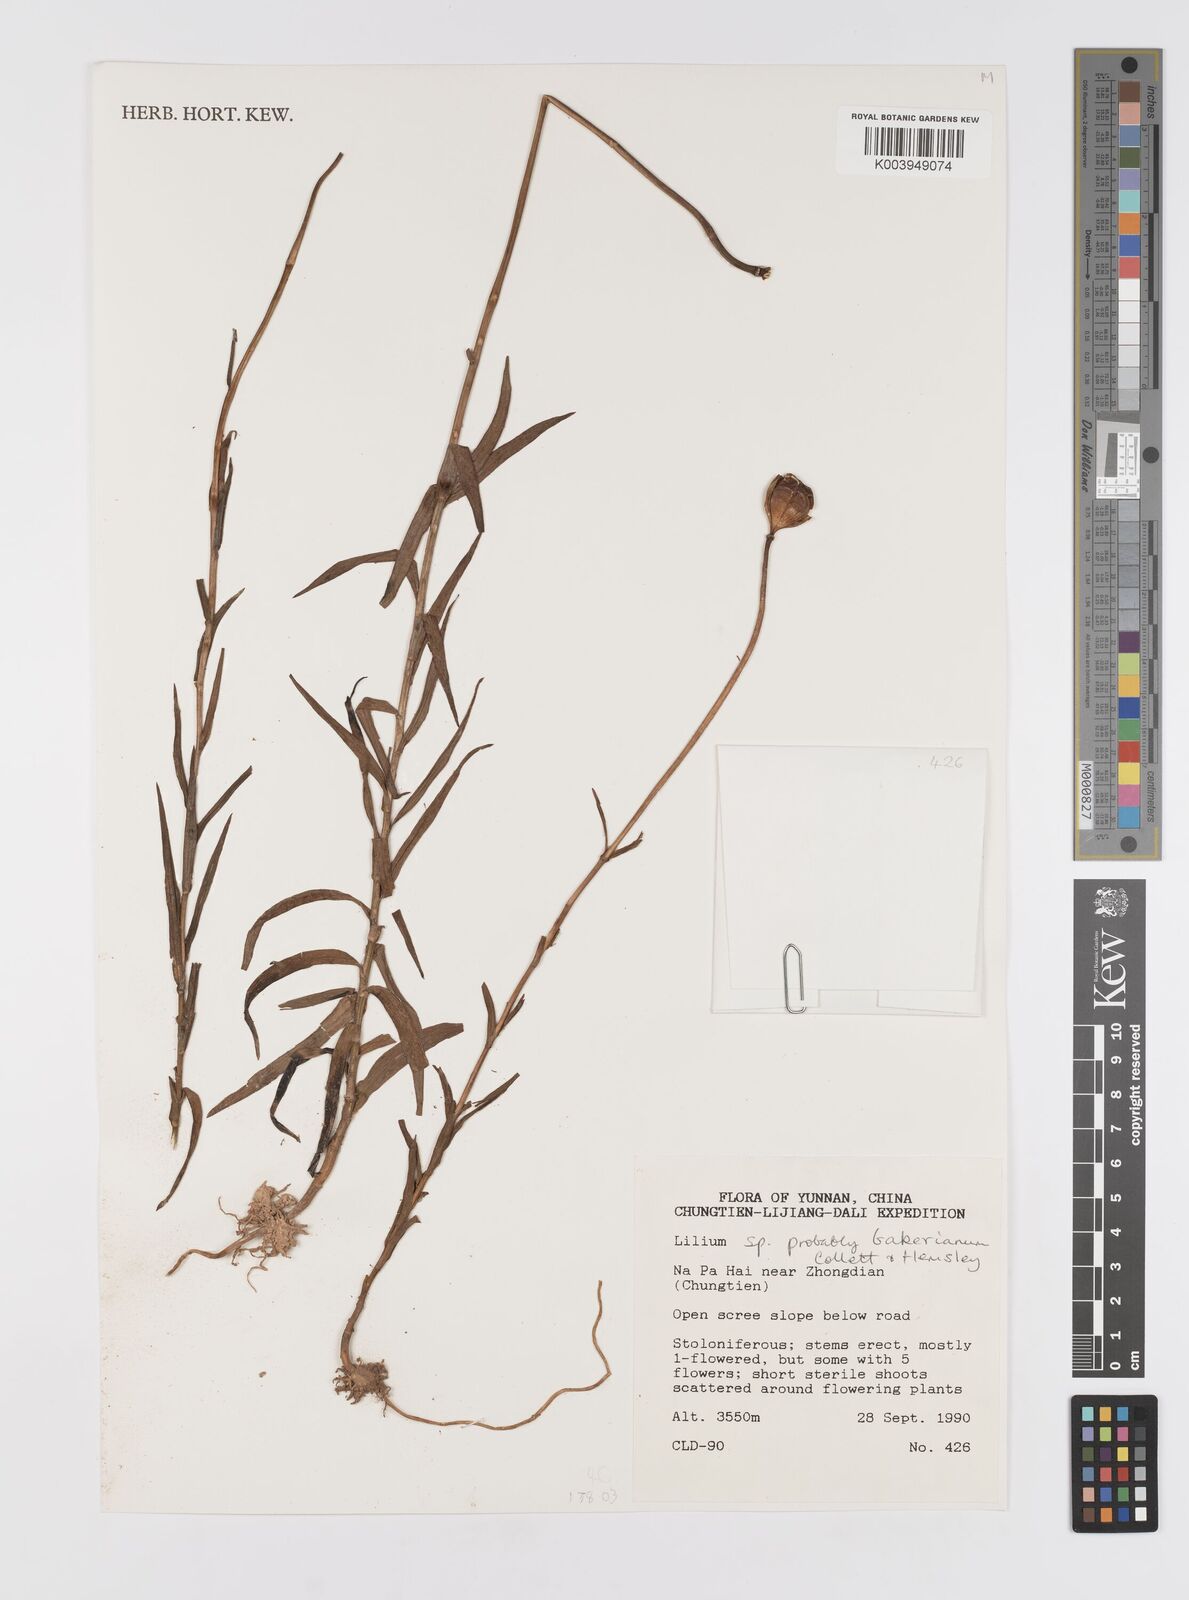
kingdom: Plantae
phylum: Tracheophyta
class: Liliopsida
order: Liliales
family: Liliaceae
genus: Lilium
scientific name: Lilium bakerianum
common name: Baker's lily
